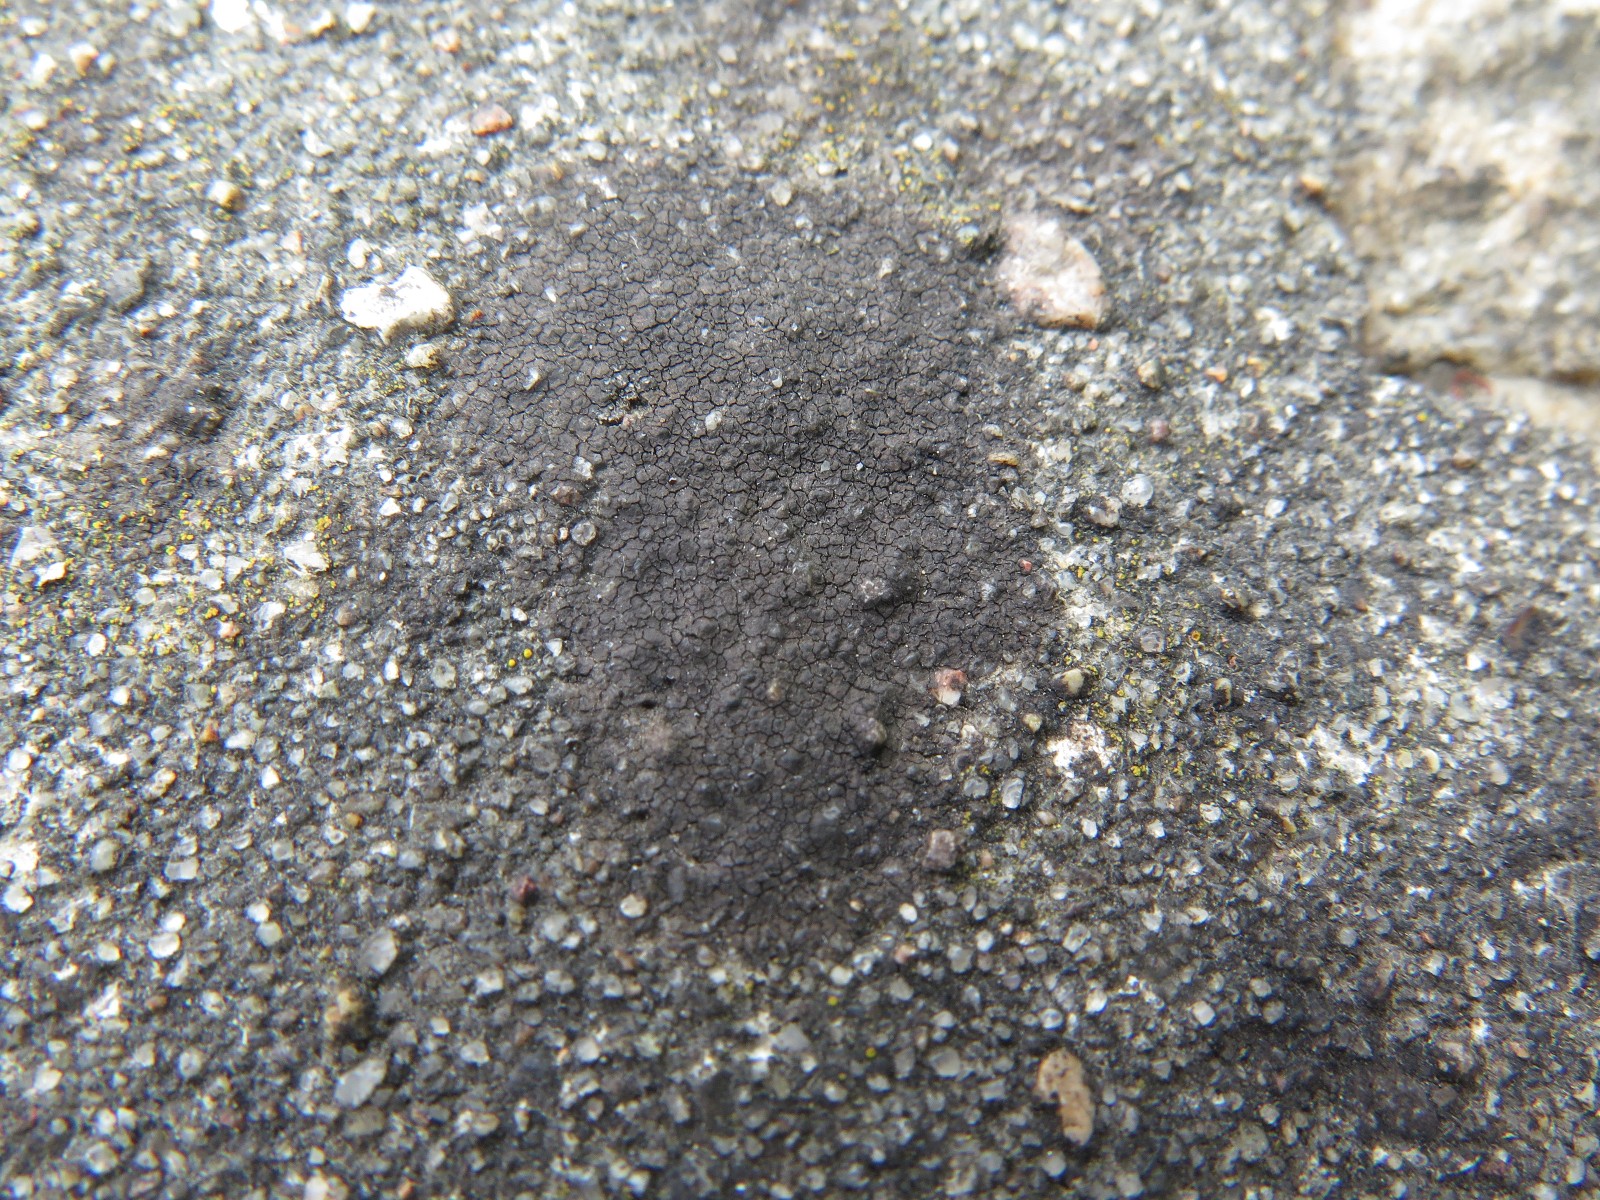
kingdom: Fungi
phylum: Ascomycota
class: Eurotiomycetes
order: Verrucariales
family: Verrucariaceae
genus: Verrucaria
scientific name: Verrucaria nigrescens
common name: sortbrun vortelav
